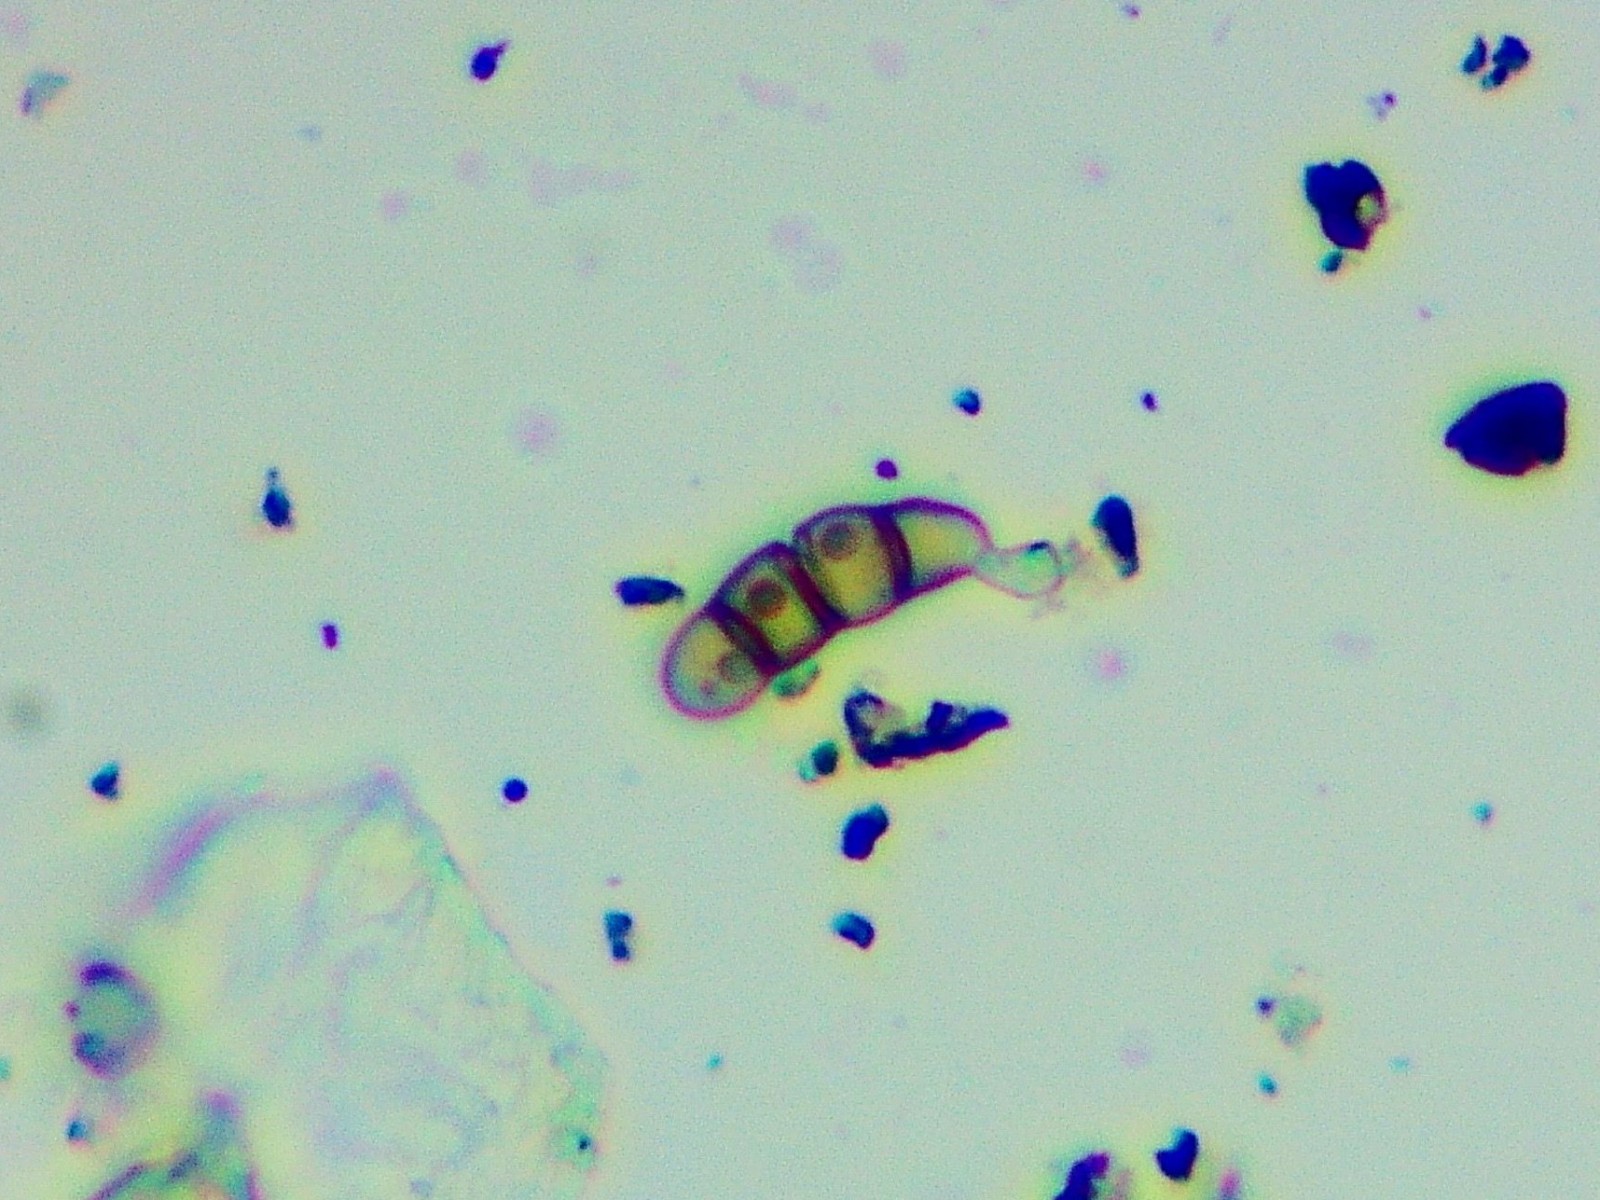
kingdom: Fungi
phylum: Ascomycota
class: Dothideomycetes
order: Hysteriales
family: Hysteriaceae
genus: Hysterium
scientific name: Hysterium acuminatum
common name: almindelig kulmund
